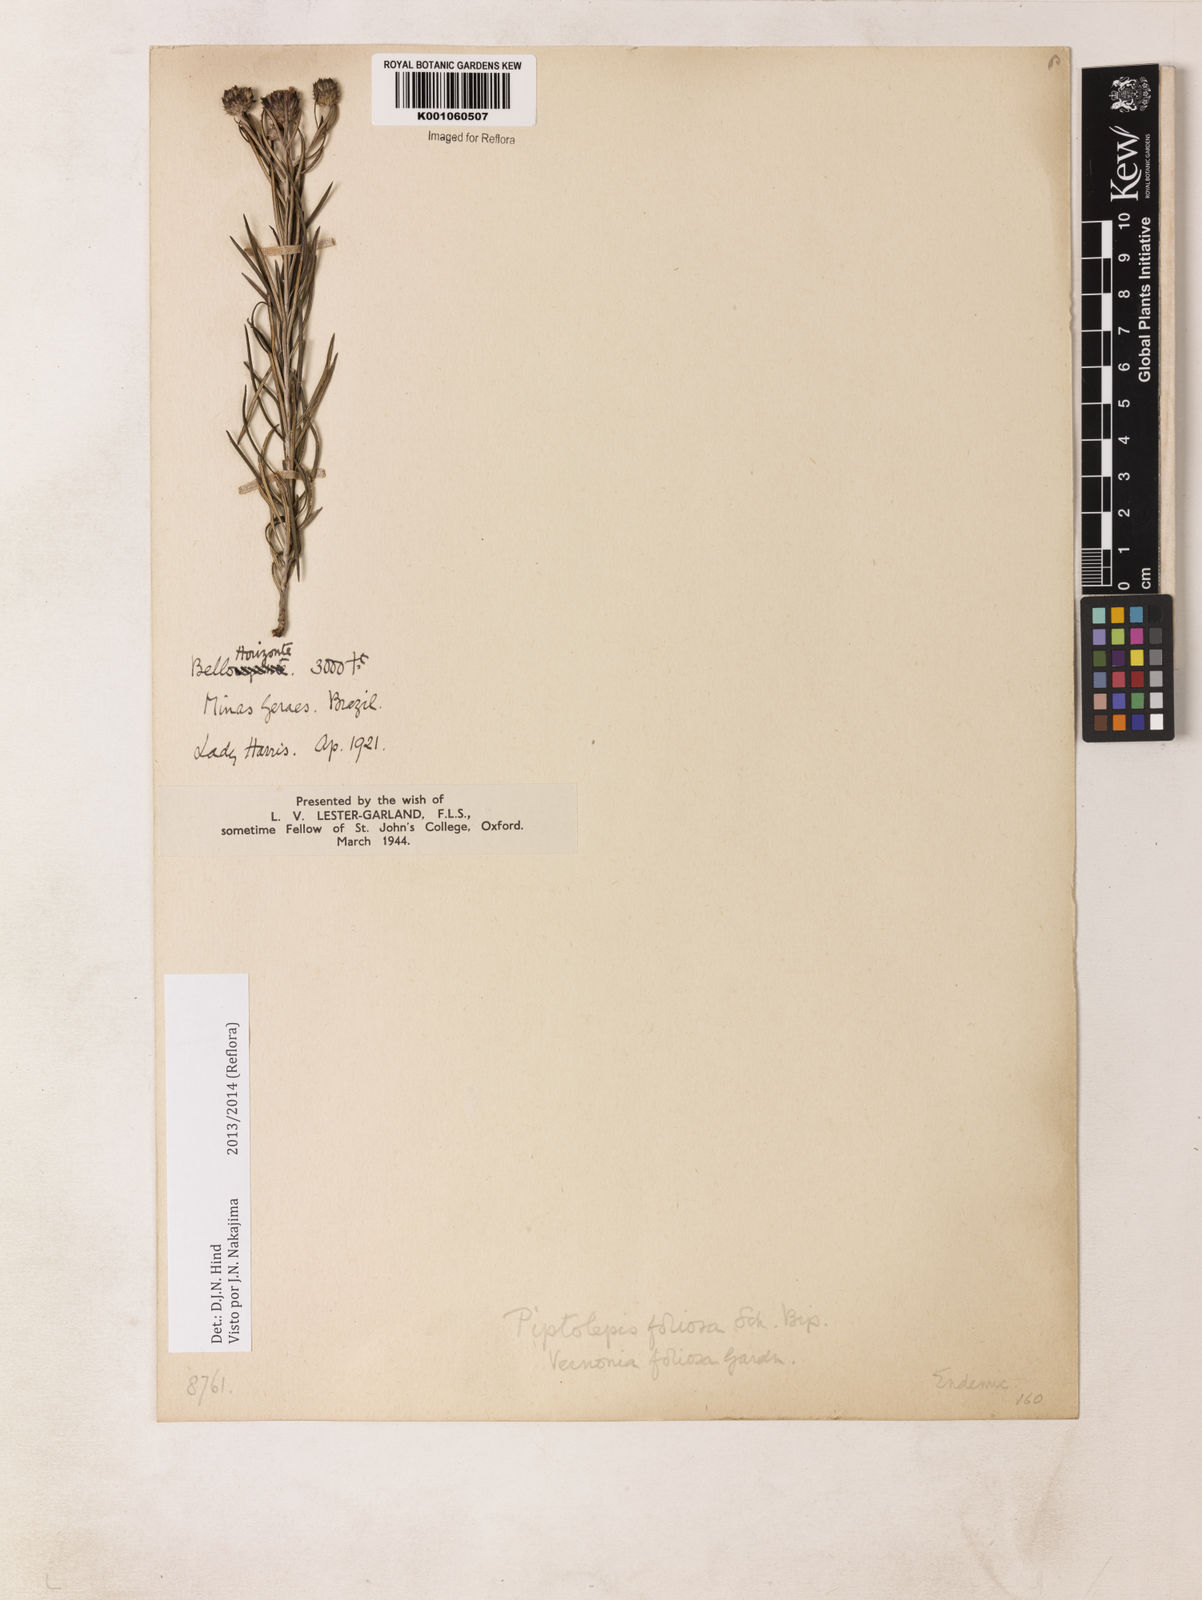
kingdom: Plantae
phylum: Tracheophyta
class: Magnoliopsida
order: Asterales
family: Asteraceae
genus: Lessingianthus
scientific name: Lessingianthus linearifolius
